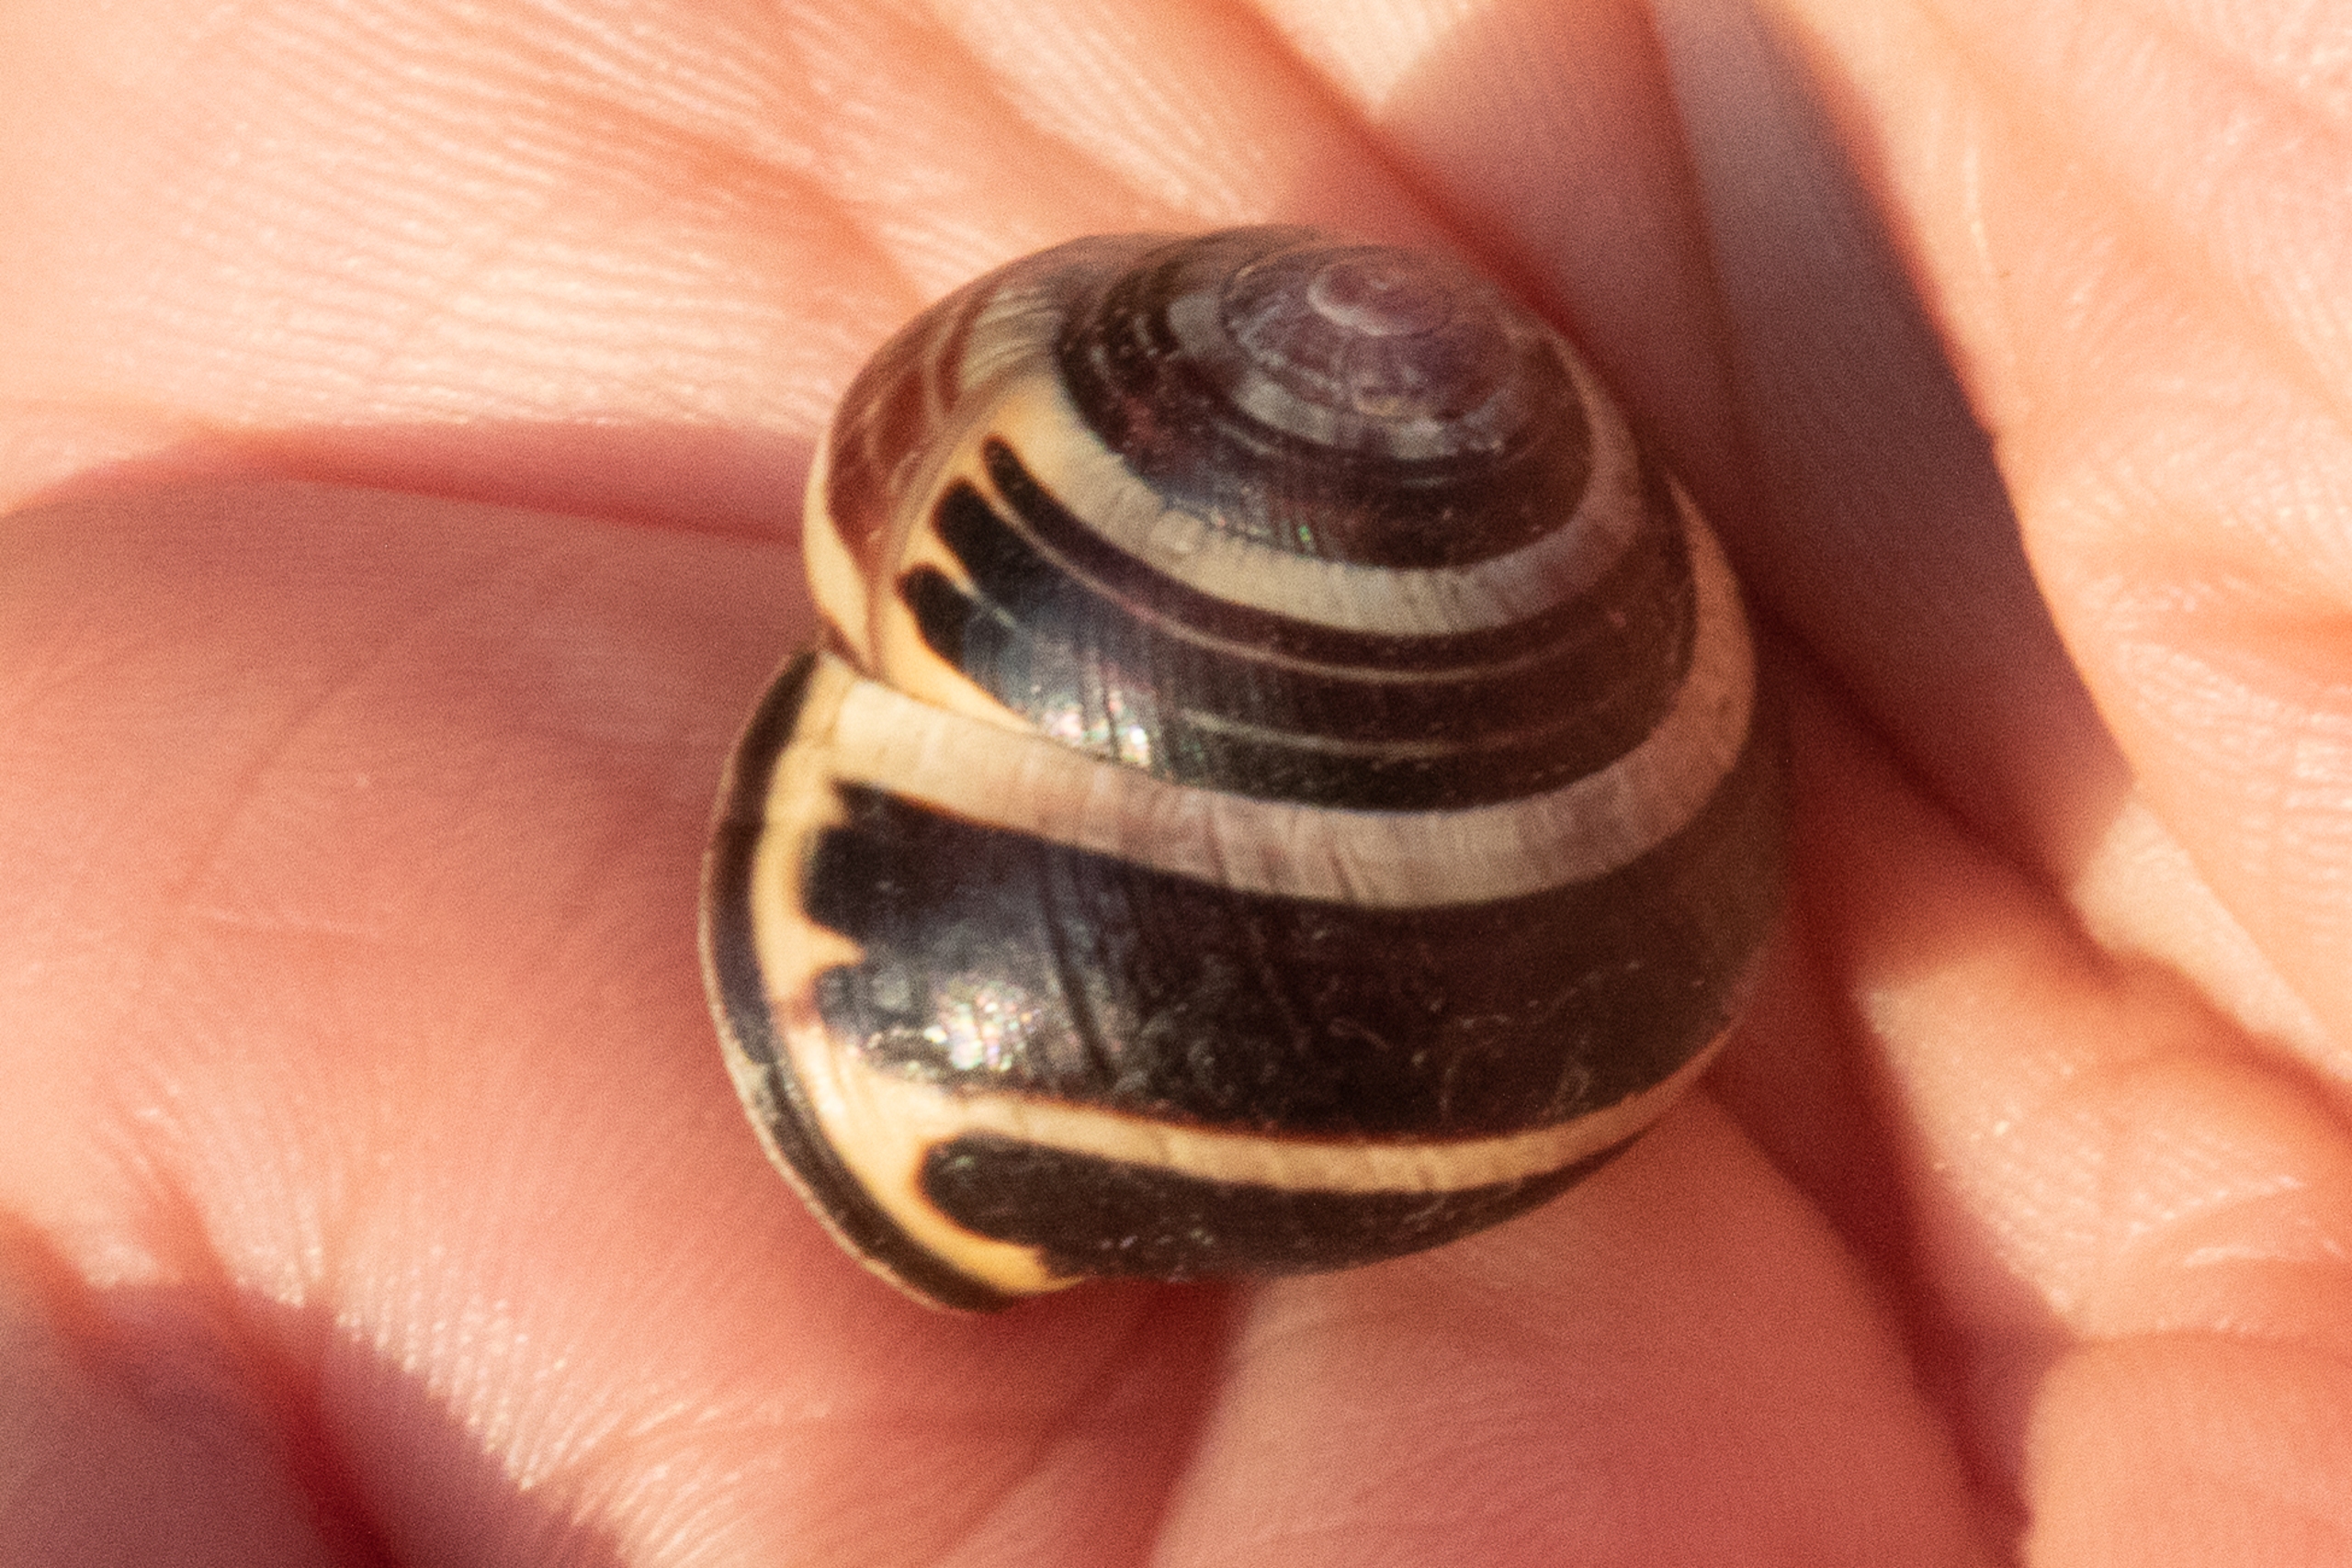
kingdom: Animalia
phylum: Mollusca
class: Gastropoda
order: Stylommatophora
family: Helicidae
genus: Cepaea
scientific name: Cepaea nemoralis
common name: Lundsnegl
